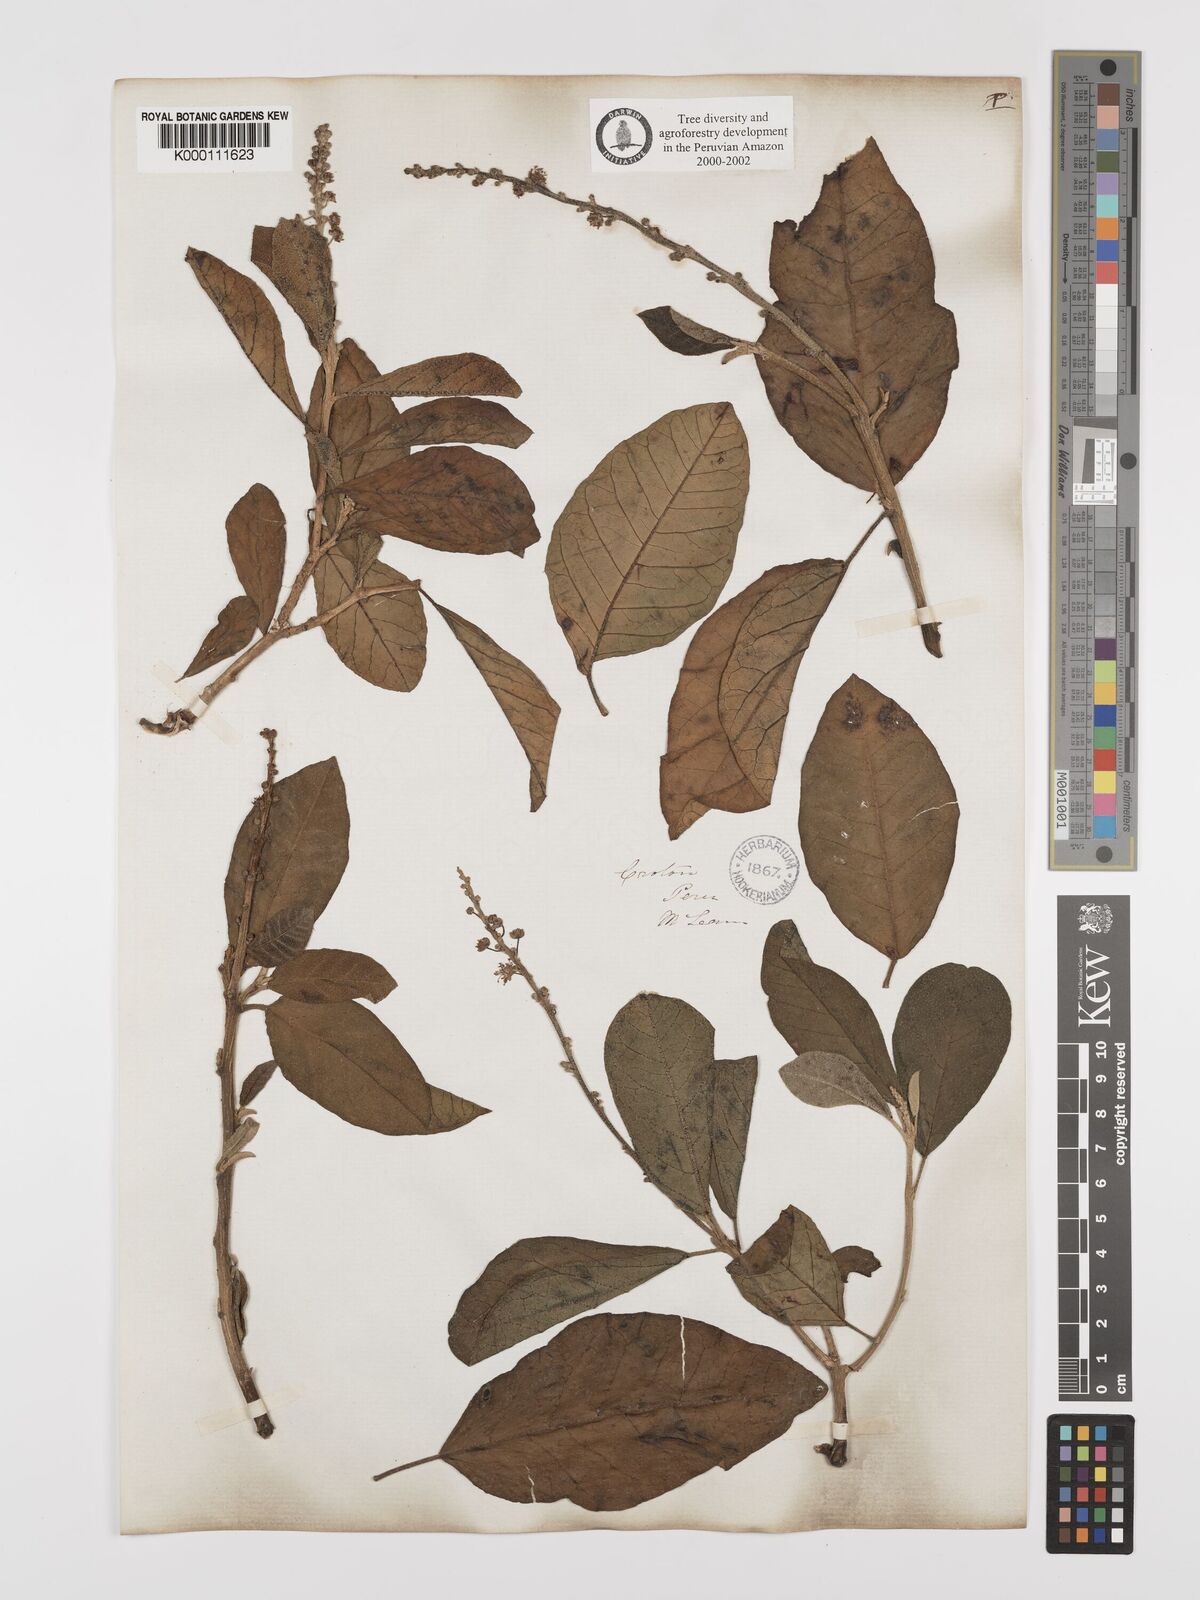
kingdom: Plantae
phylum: Tracheophyta
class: Magnoliopsida
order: Malpighiales
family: Euphorbiaceae
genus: Croton
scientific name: Croton alnifolius
